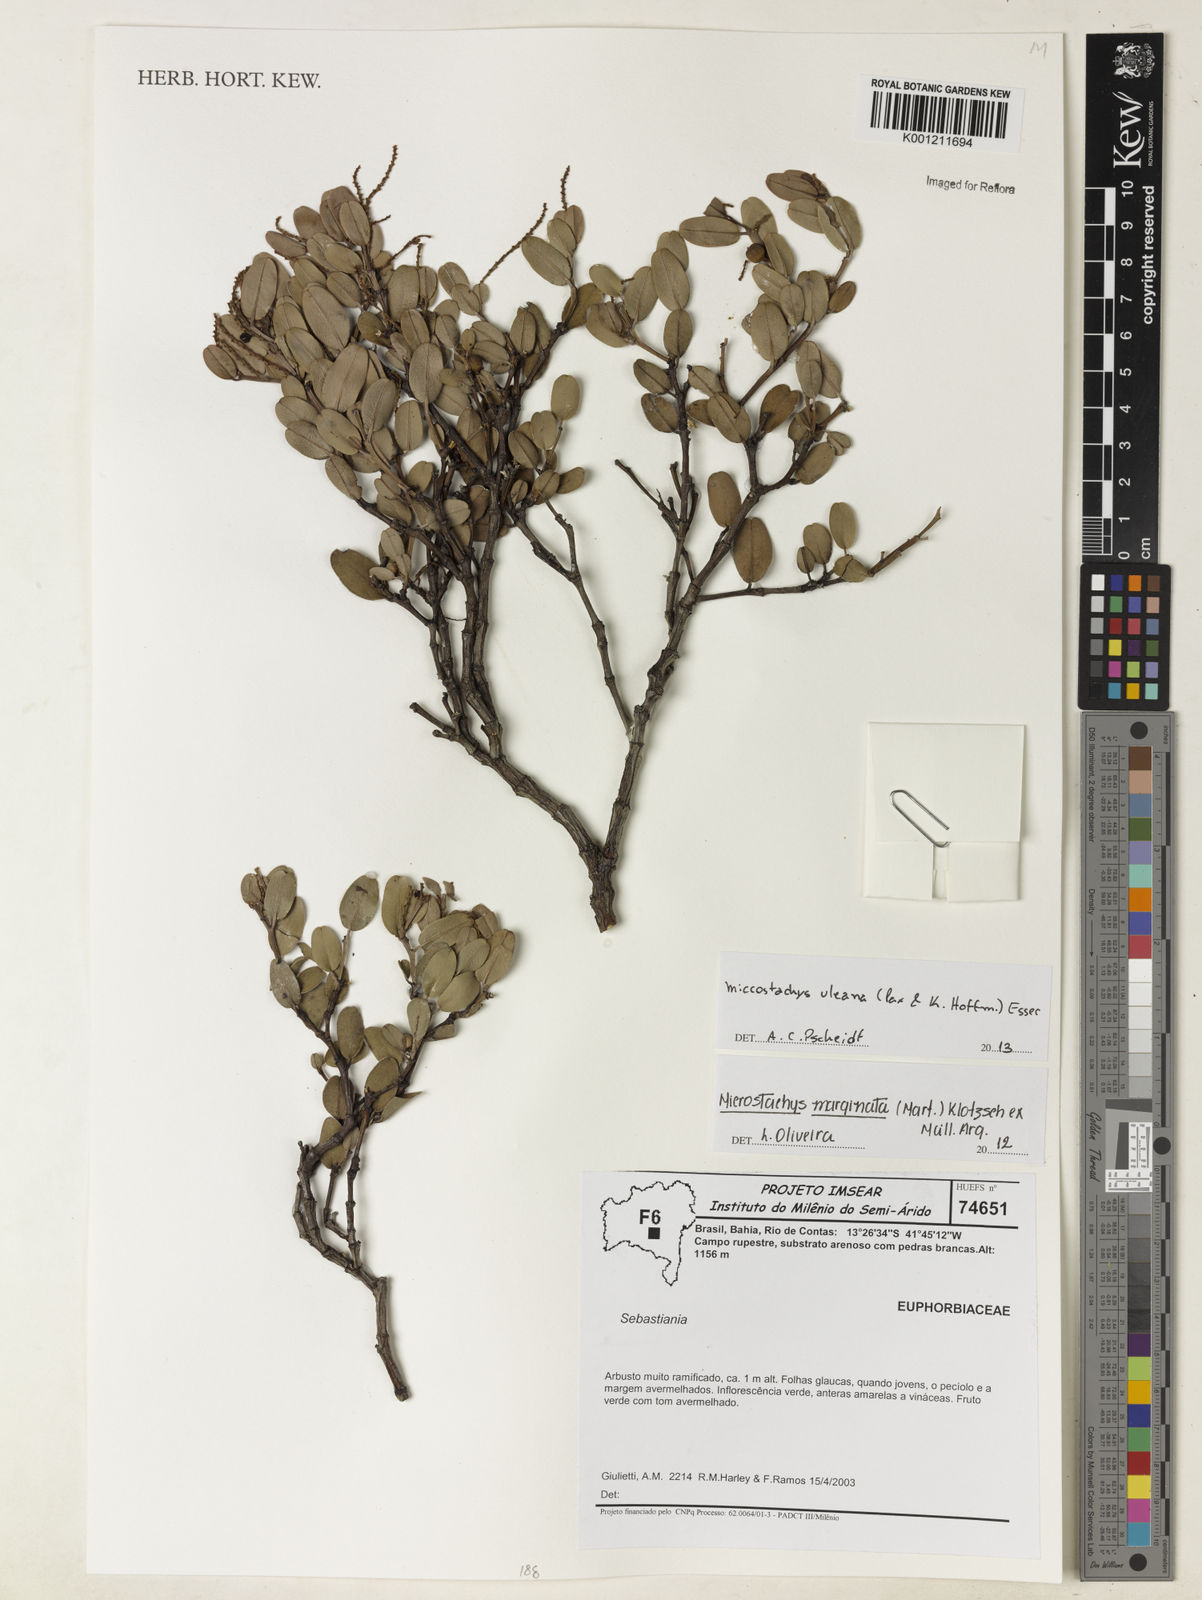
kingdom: Plantae
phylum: Tracheophyta
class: Magnoliopsida
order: Malpighiales
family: Euphorbiaceae
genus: Microstachys
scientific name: Microstachys uleana
